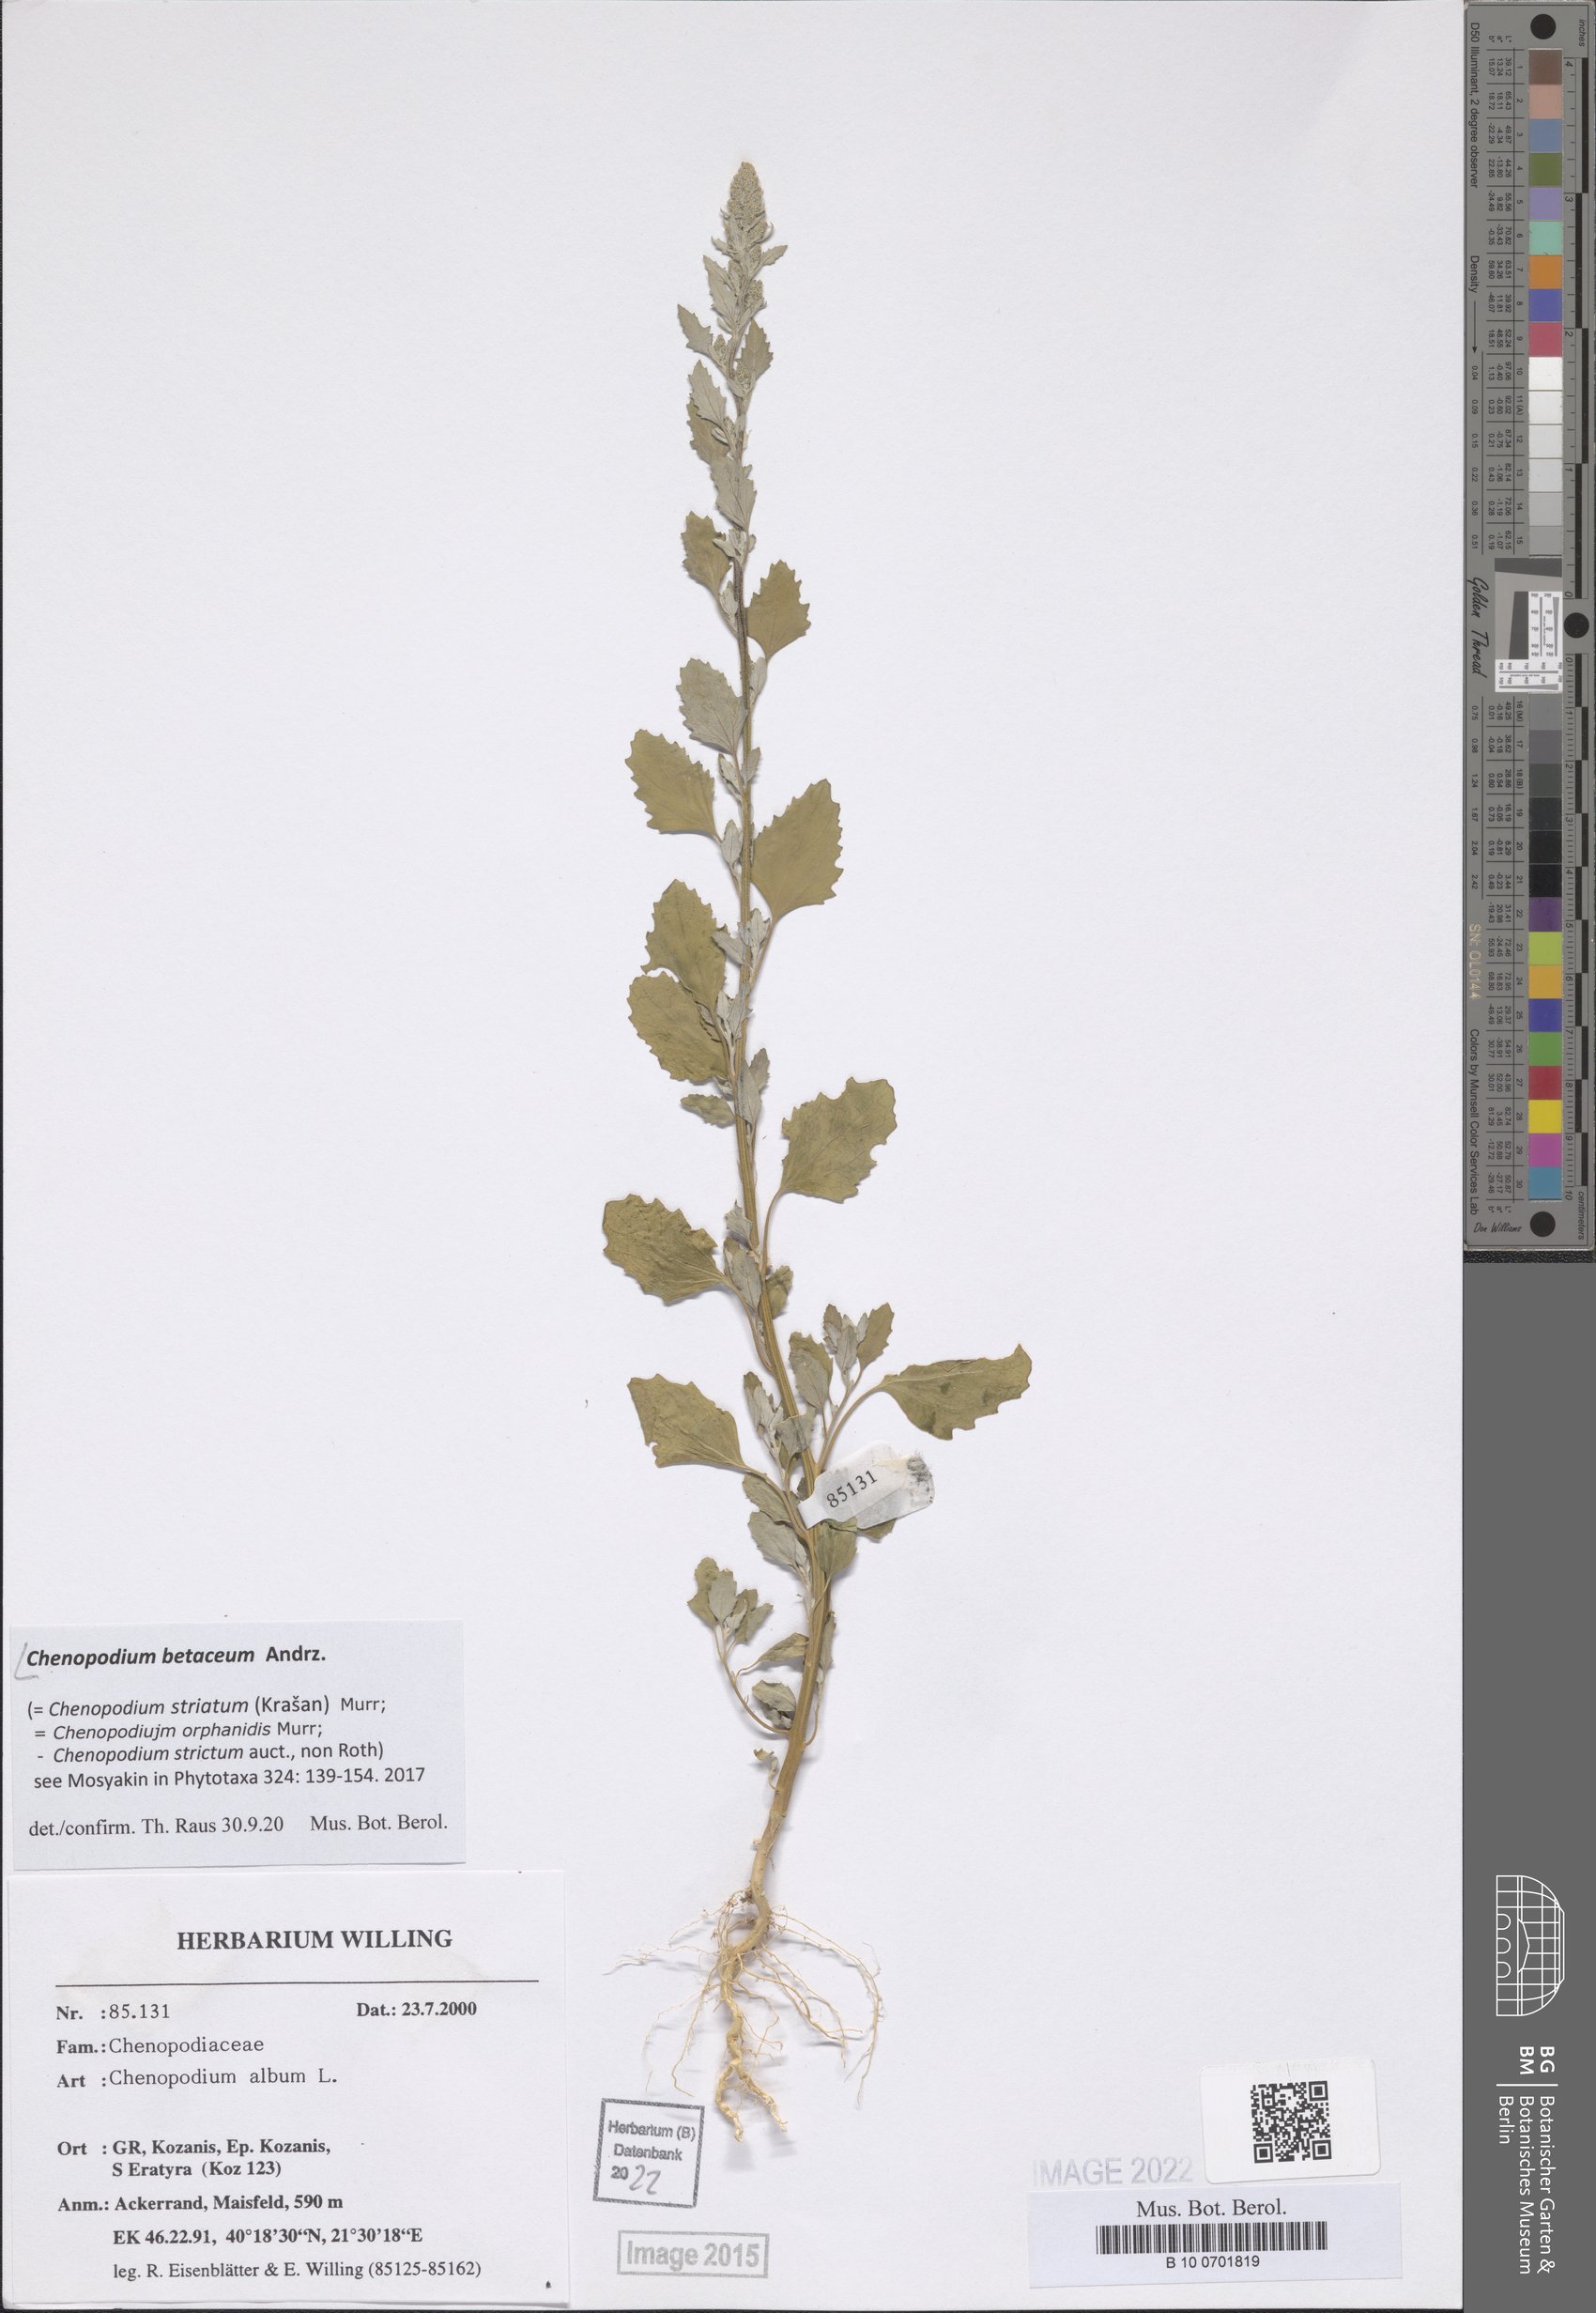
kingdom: Plantae
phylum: Tracheophyta
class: Magnoliopsida
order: Caryophyllales
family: Amaranthaceae
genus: Chenopodium
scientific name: Chenopodium betaceum
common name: Striped goosefoot
